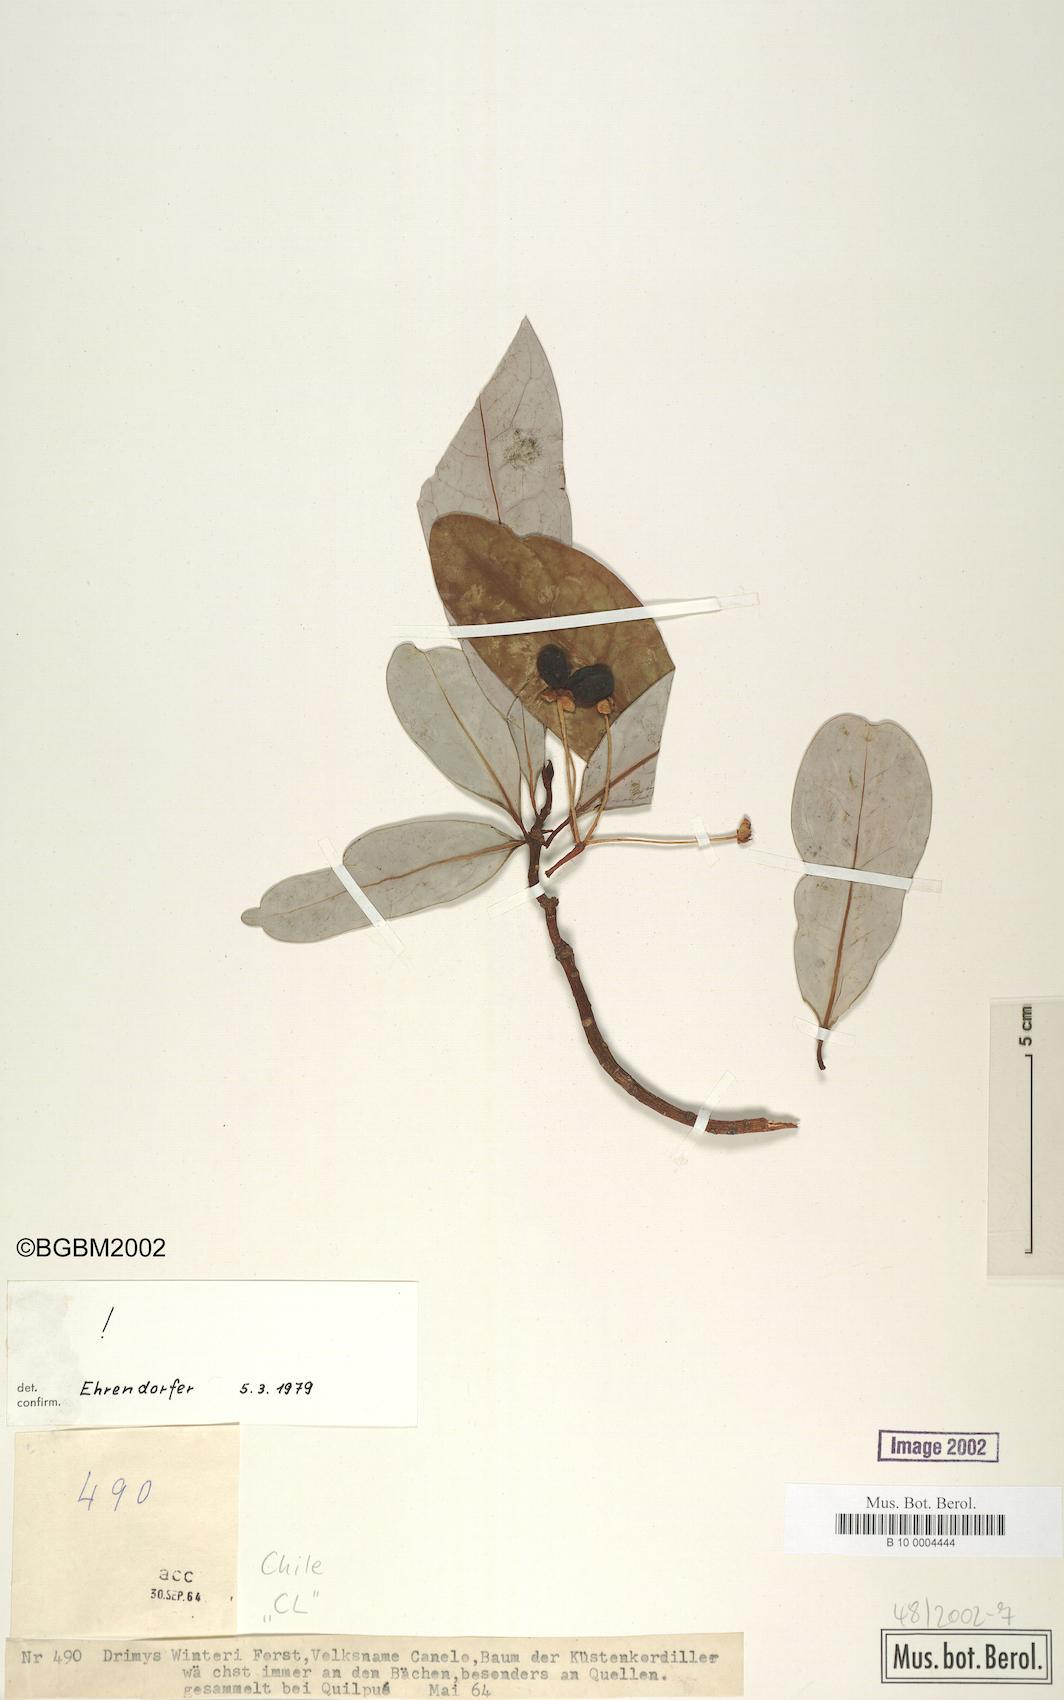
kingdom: Plantae
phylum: Tracheophyta
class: Magnoliopsida
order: Canellales
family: Winteraceae
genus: Drimys
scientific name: Drimys winteri
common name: Winter's-bark
